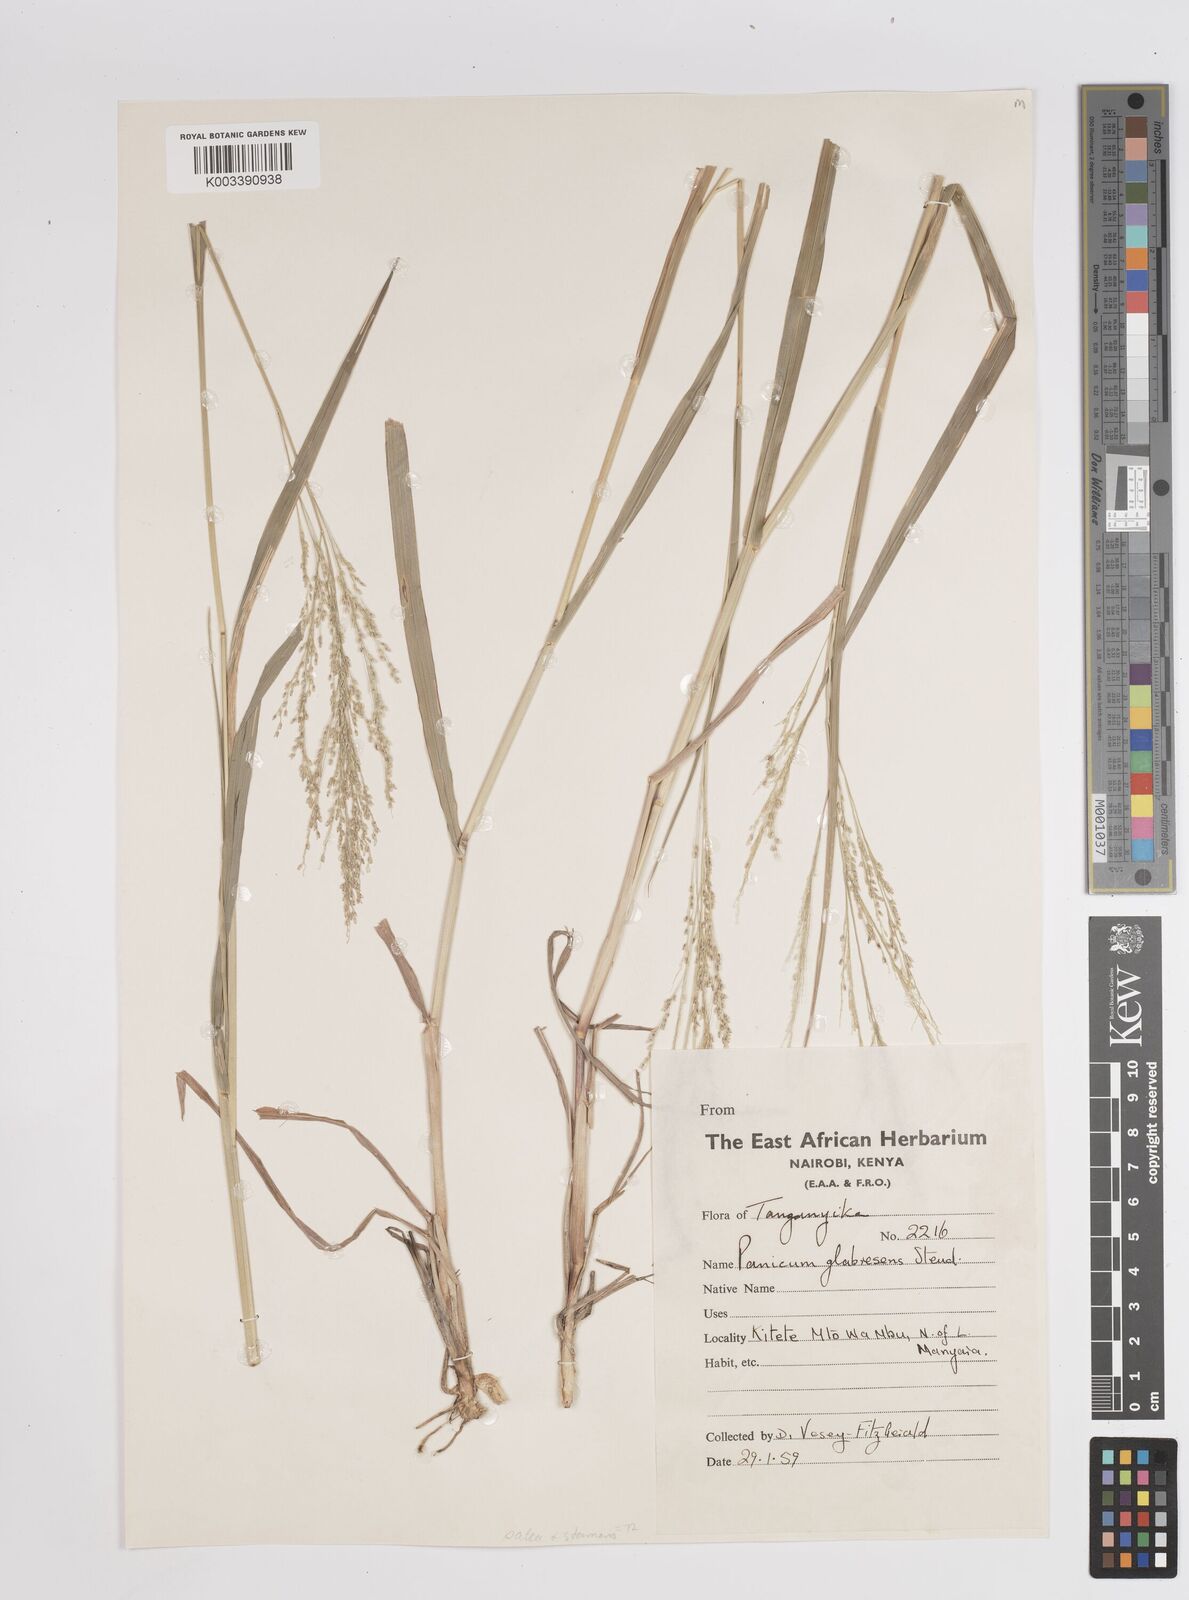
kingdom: Plantae
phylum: Tracheophyta
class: Liliopsida
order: Poales
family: Poaceae
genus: Panicum
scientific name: Panicum subalbidum
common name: Elbow buffalo grass
